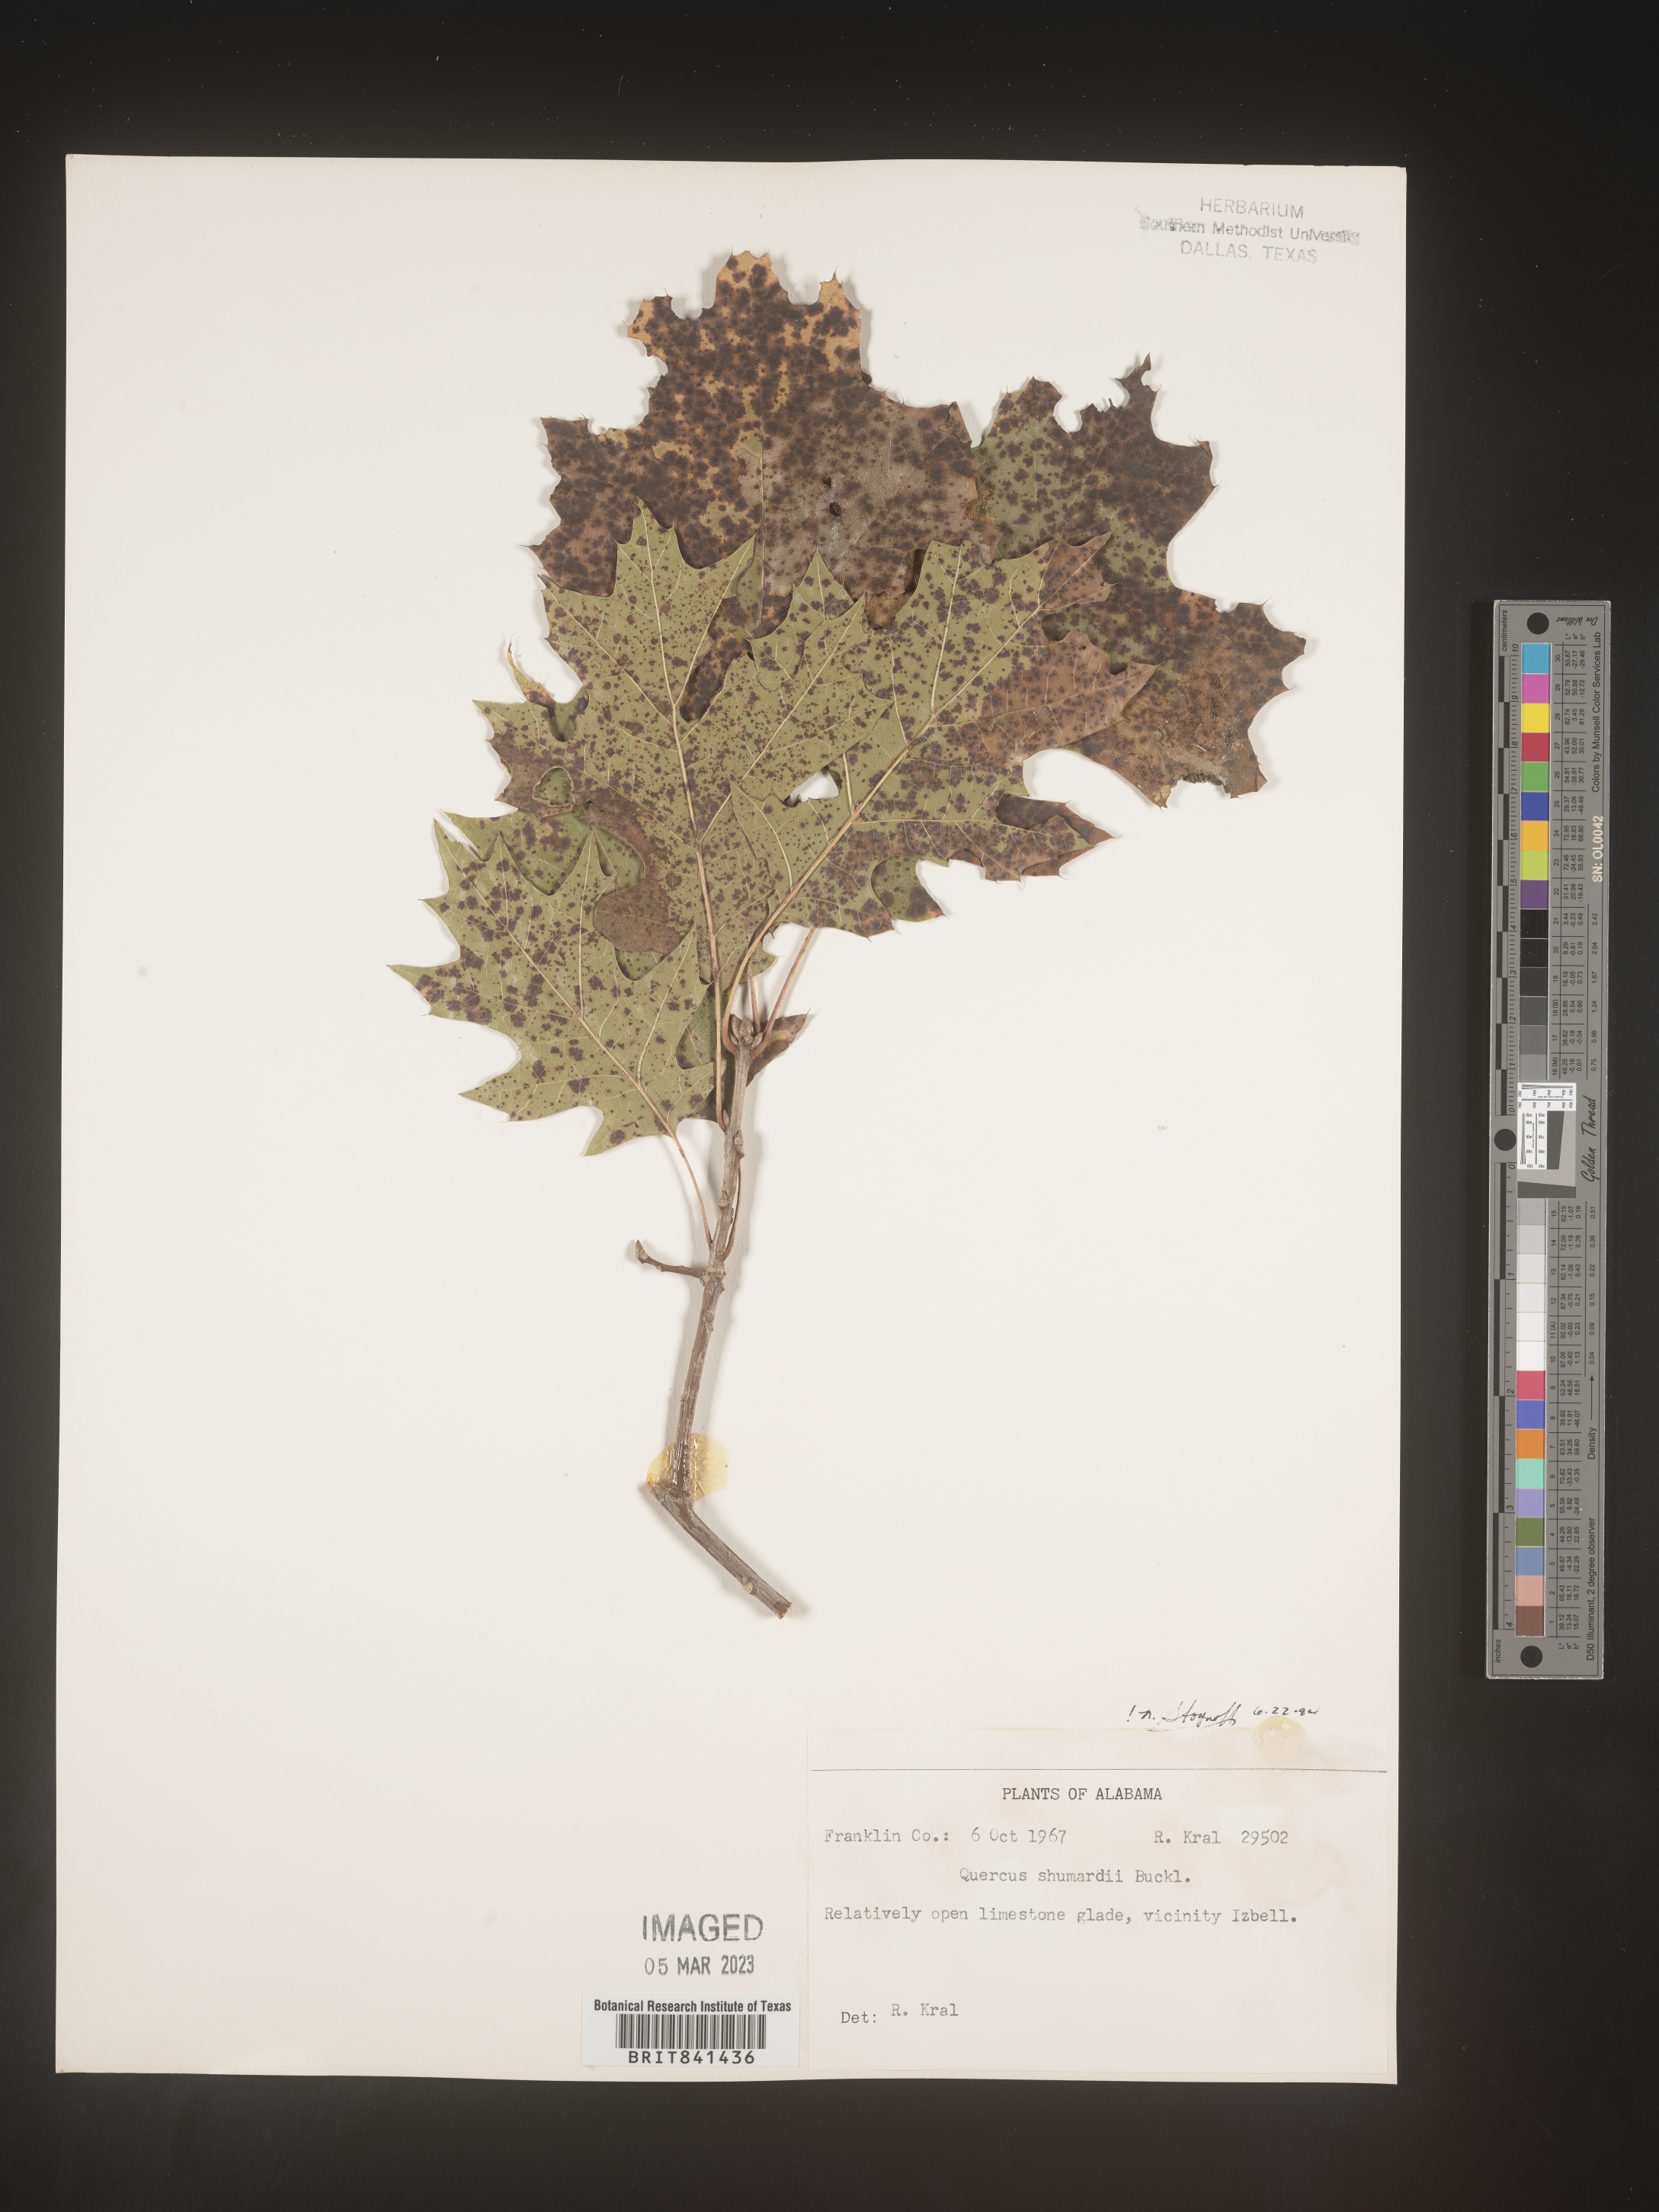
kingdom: Plantae
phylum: Tracheophyta
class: Magnoliopsida
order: Fagales
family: Fagaceae
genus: Quercus
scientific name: Quercus shumardii
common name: Shumard oak
